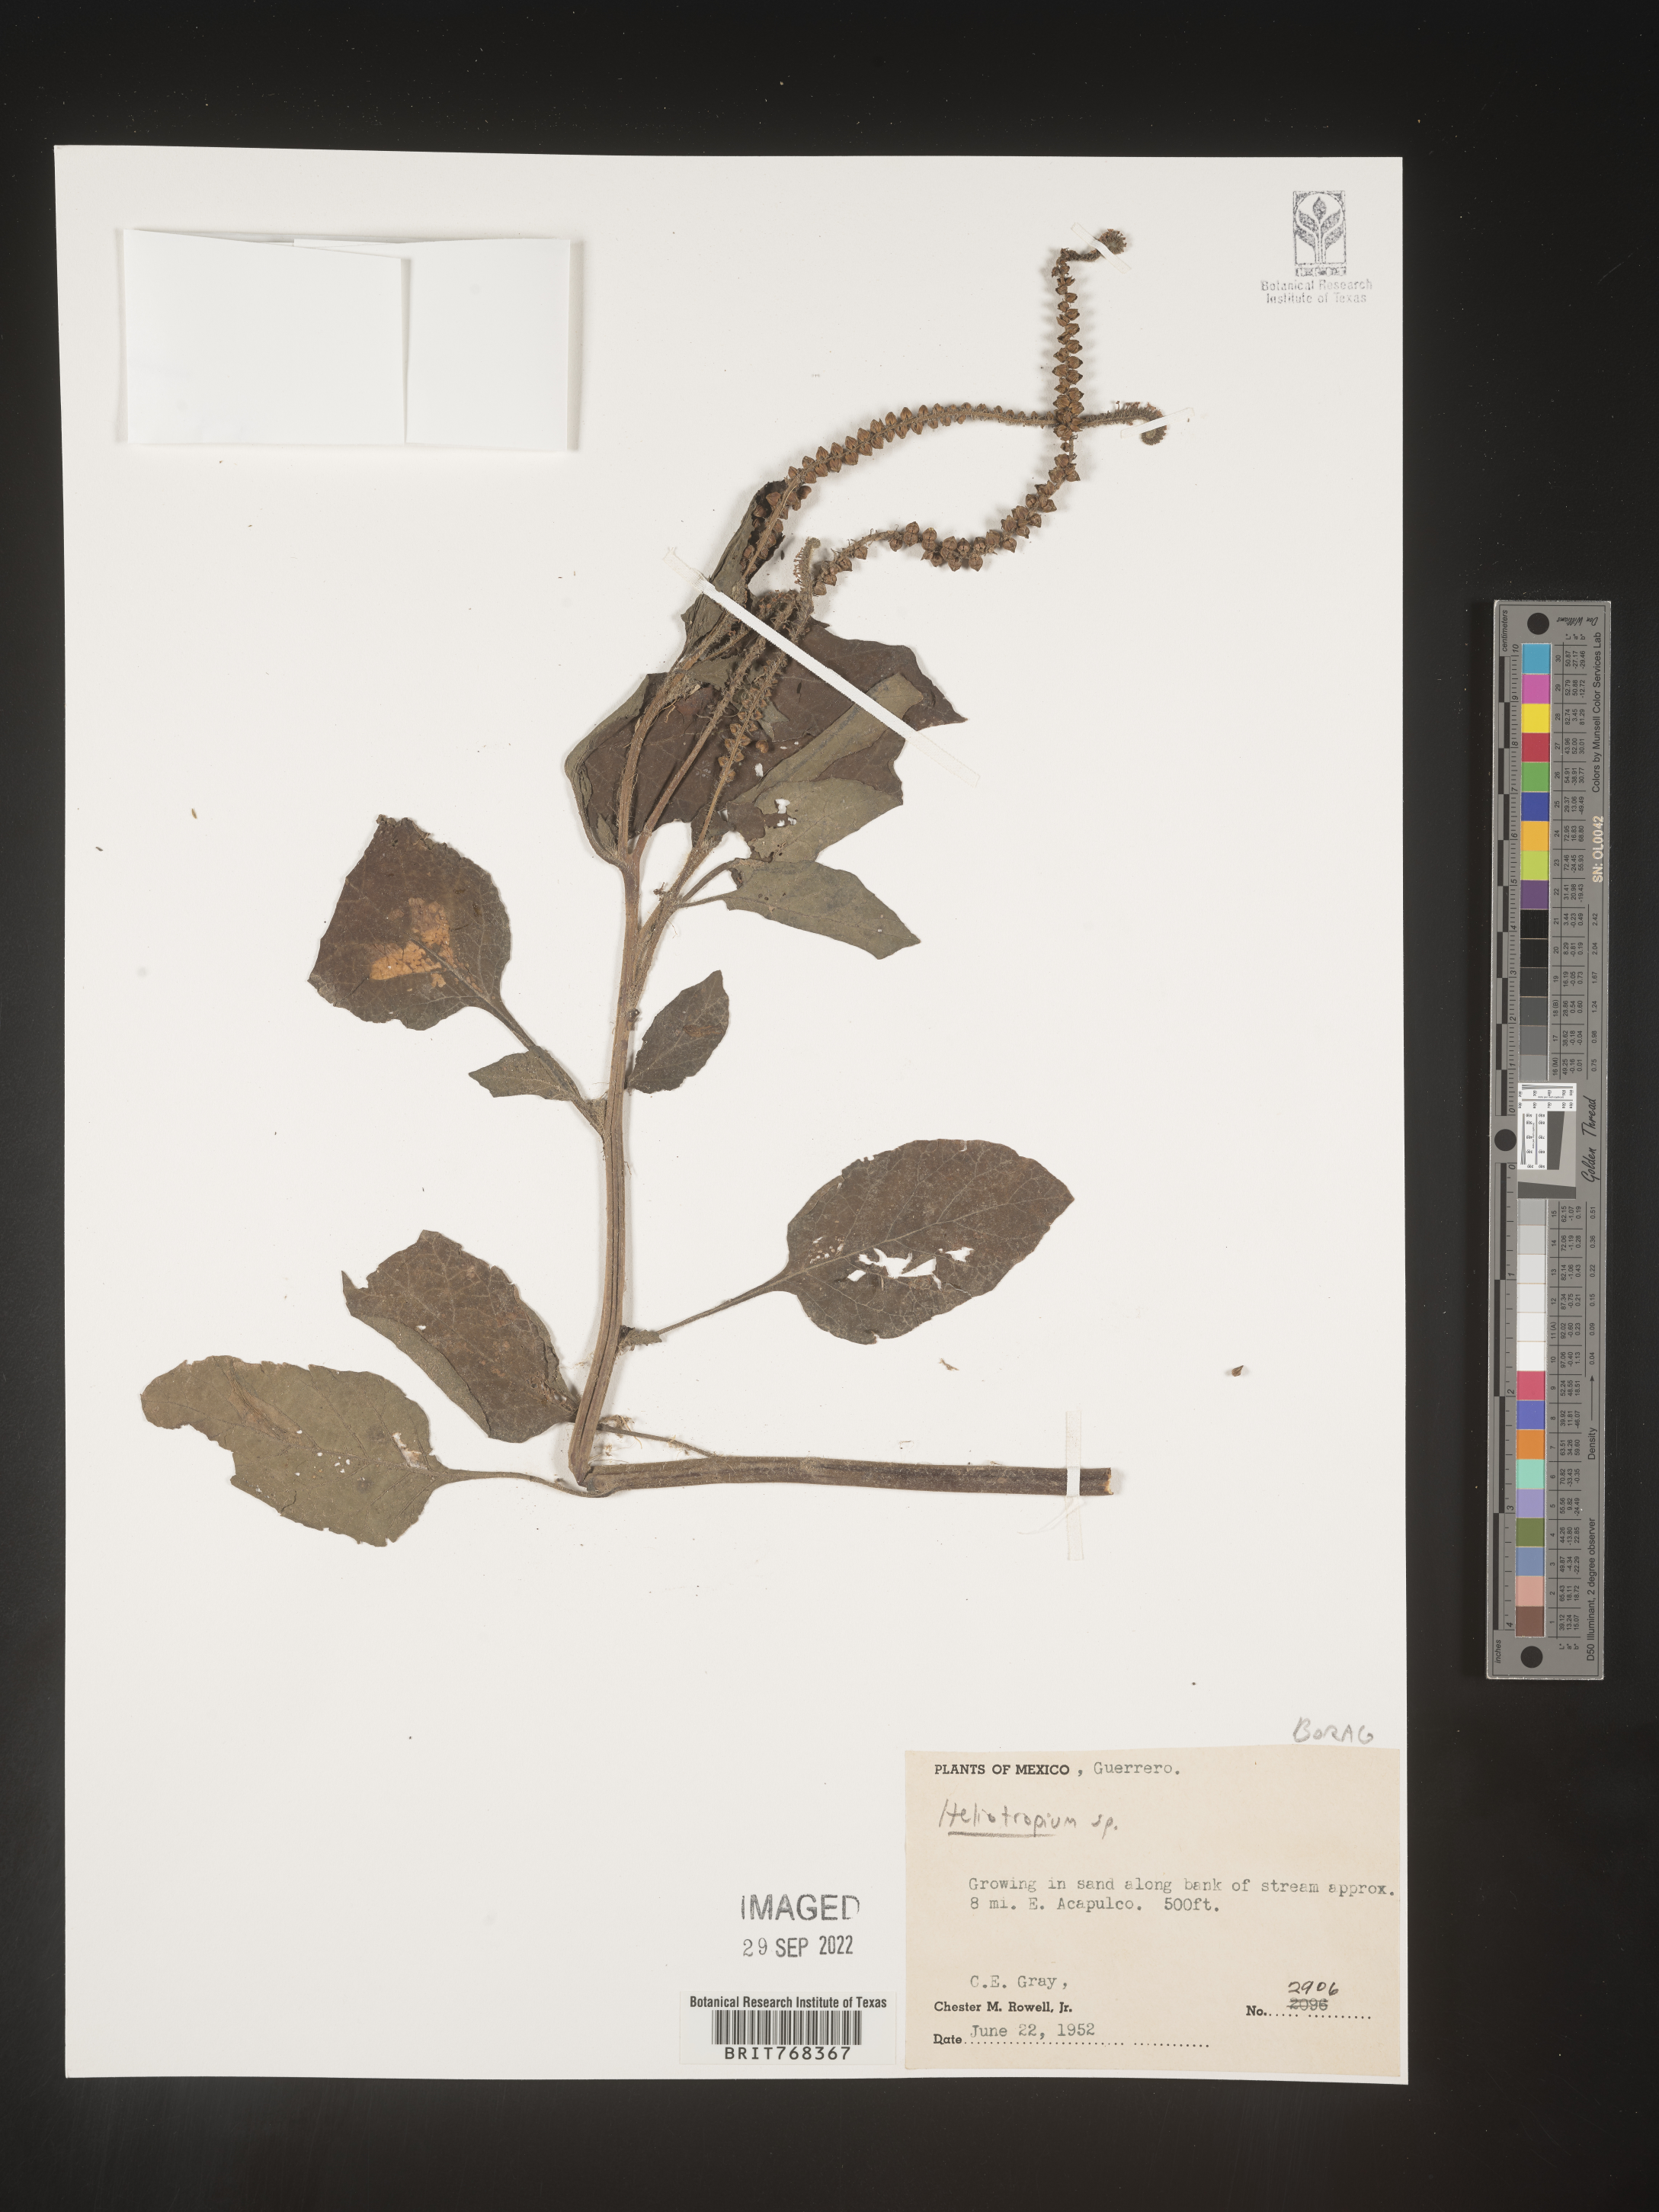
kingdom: Plantae
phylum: Tracheophyta
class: Magnoliopsida
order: Boraginales
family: Heliotropiaceae
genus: Heliotropium
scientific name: Heliotropium
